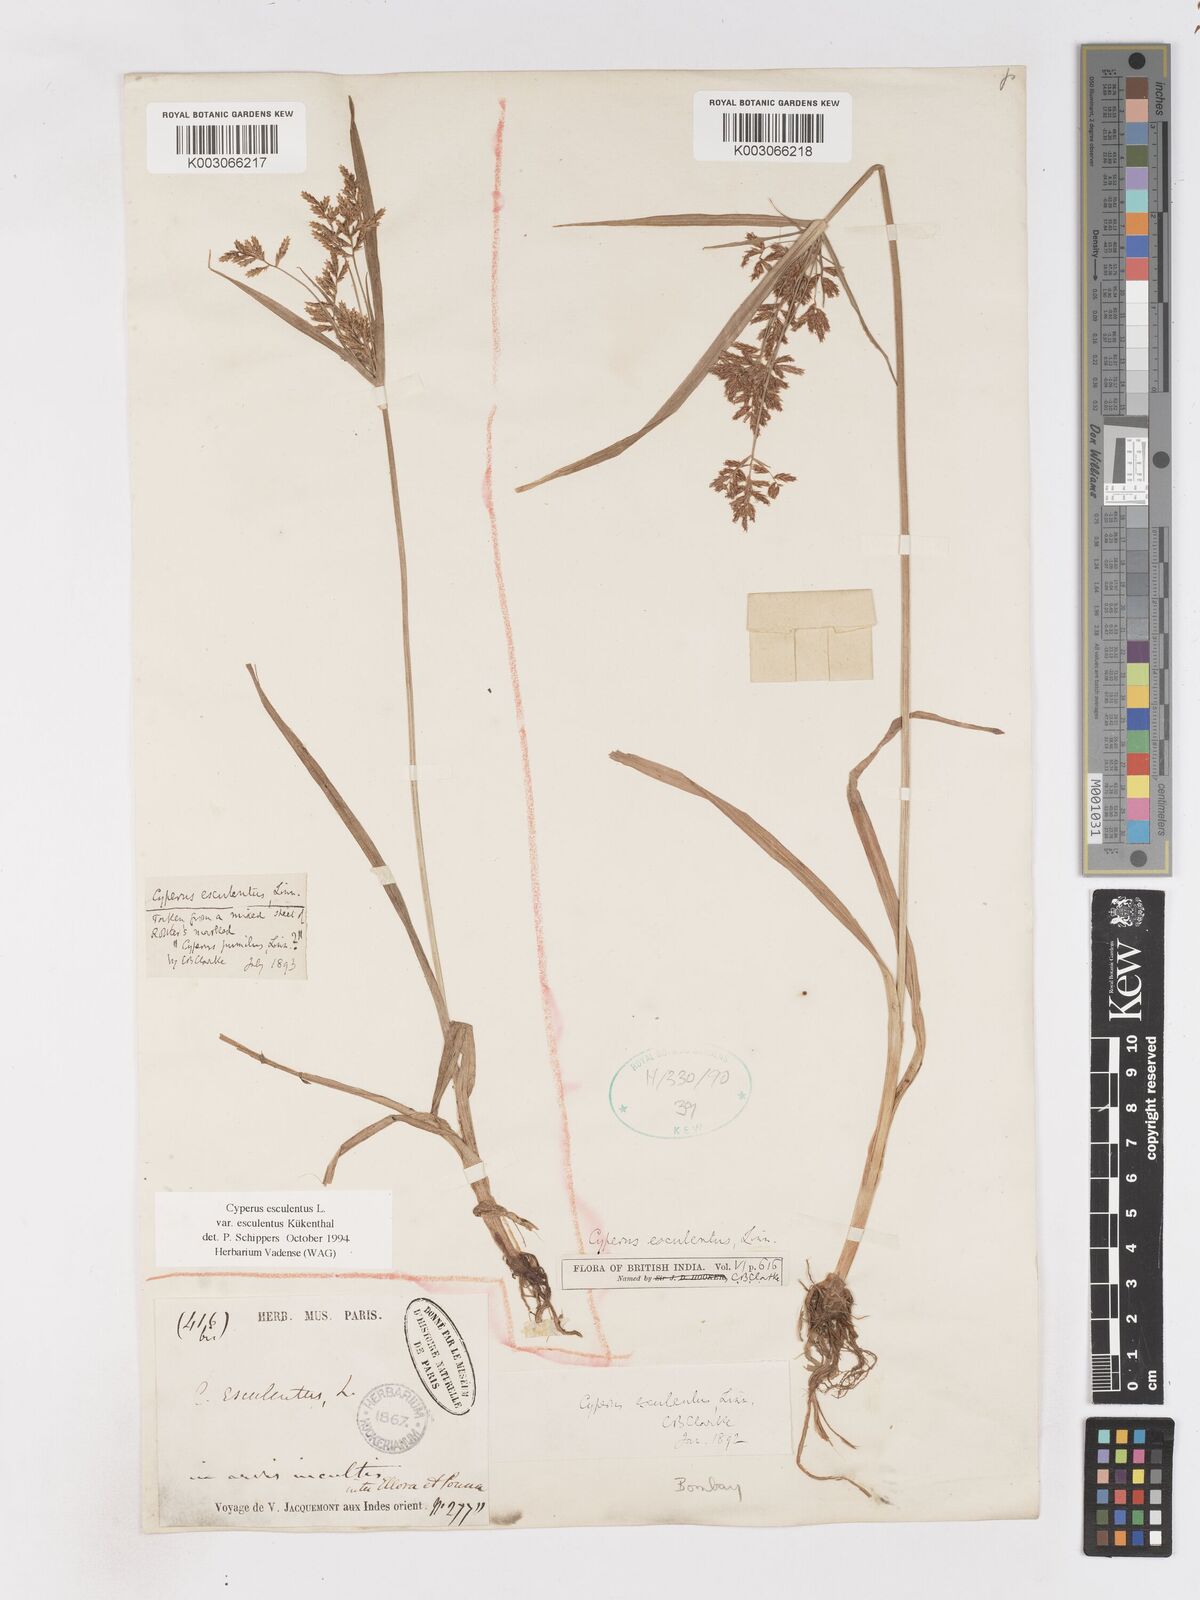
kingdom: Plantae
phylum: Tracheophyta
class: Liliopsida
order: Poales
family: Cyperaceae
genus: Cyperus
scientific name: Cyperus esculentus
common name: Yellow nutsedge
